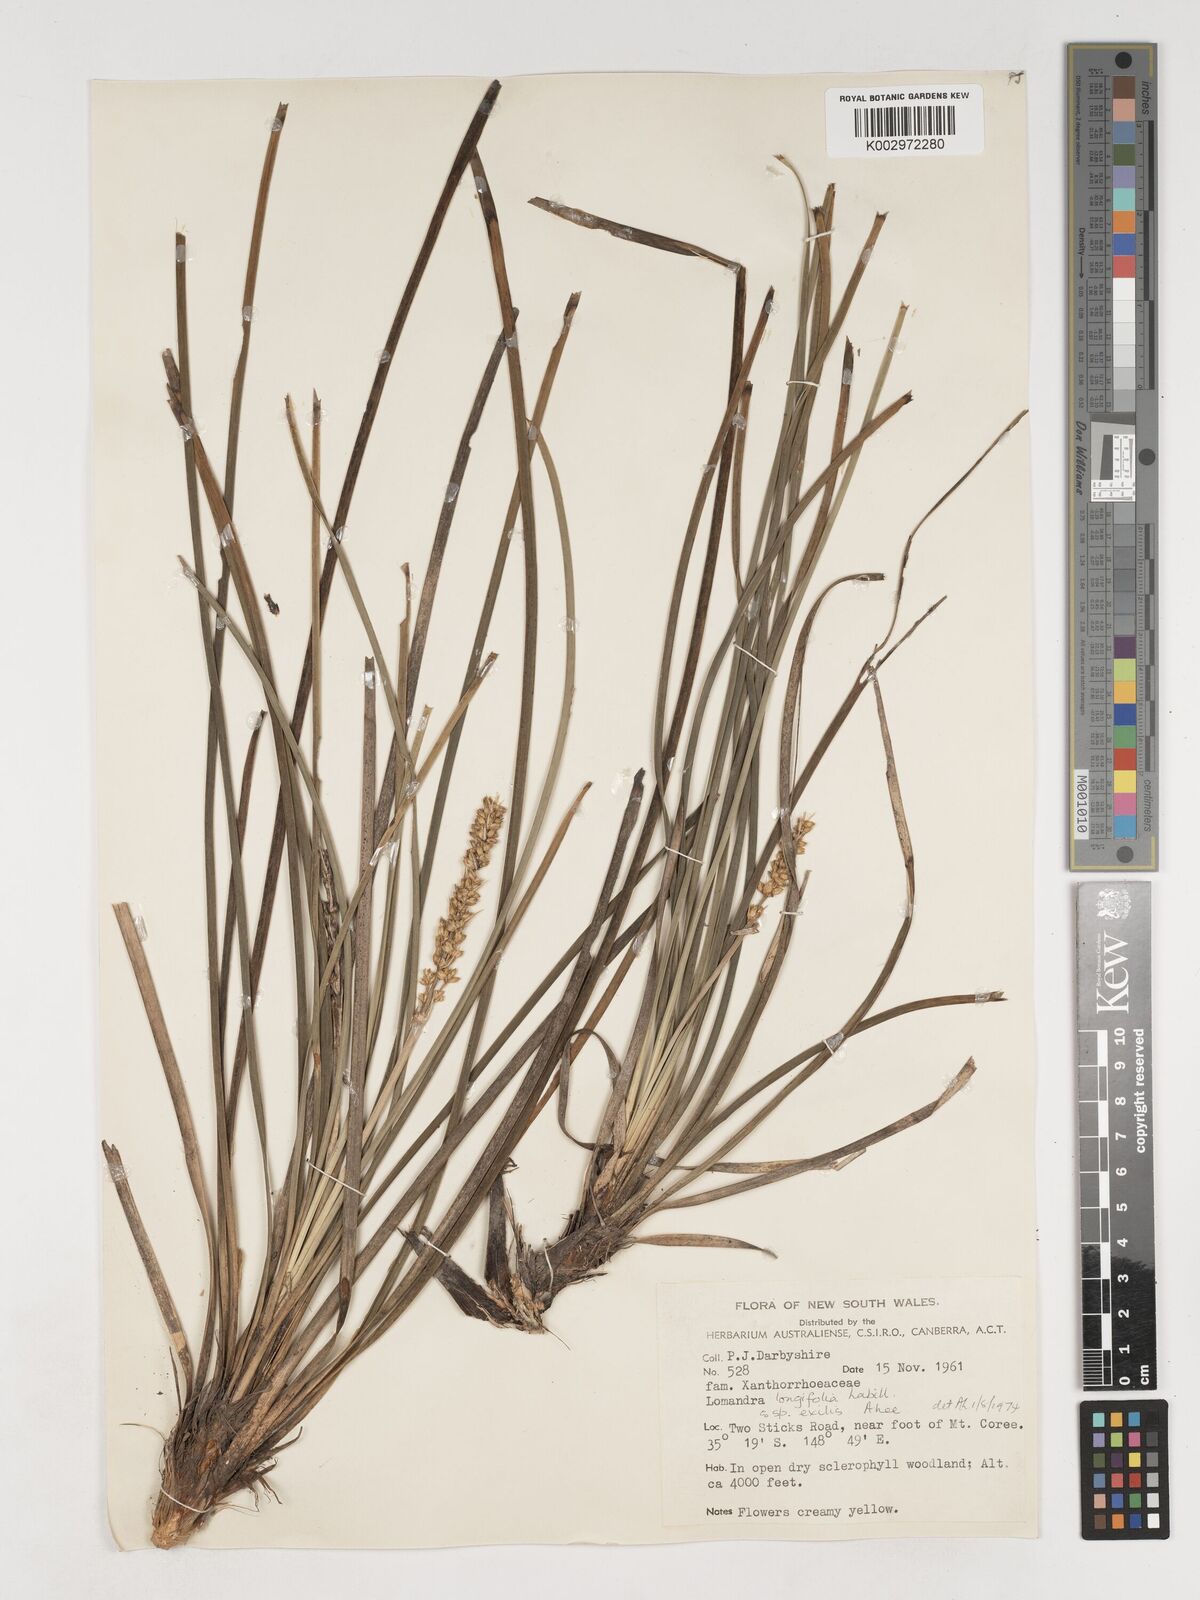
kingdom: Plantae
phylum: Tracheophyta
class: Liliopsida
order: Asparagales
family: Asparagaceae
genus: Lomandra
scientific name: Lomandra
